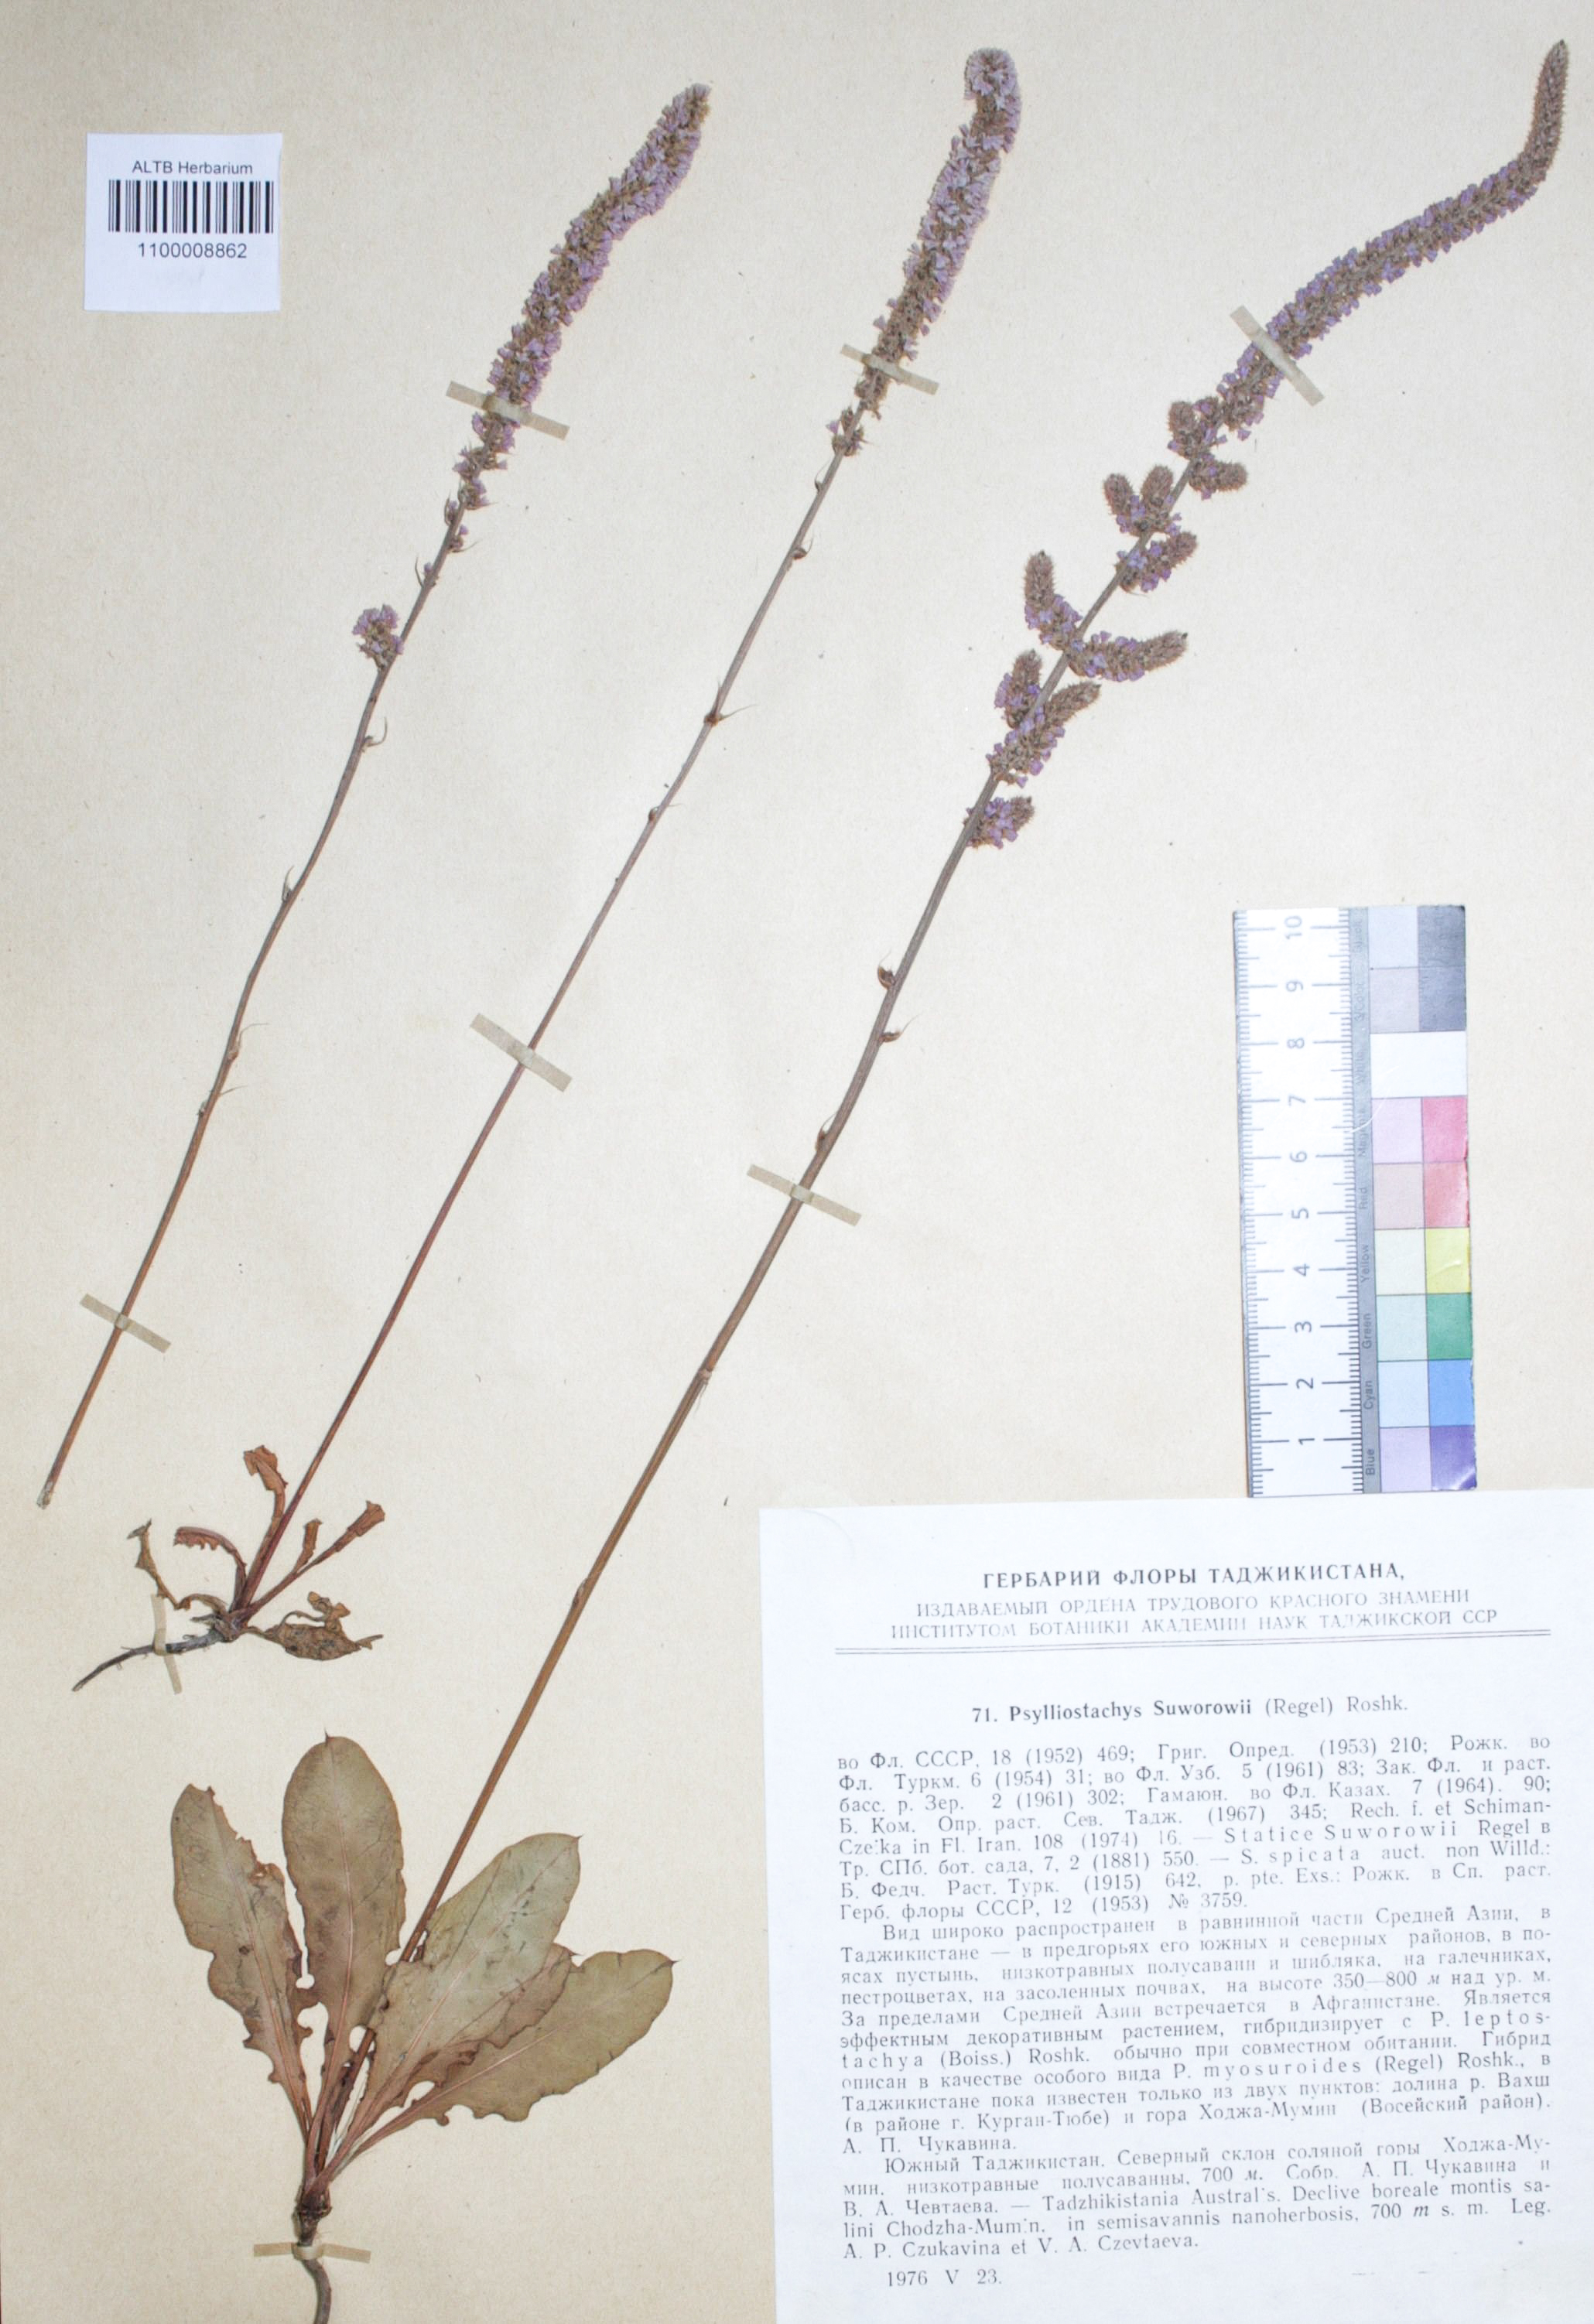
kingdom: Plantae
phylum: Tracheophyta
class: Magnoliopsida
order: Caryophyllales
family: Plumbaginaceae
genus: Psylliostachys
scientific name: Psylliostachys suworowii
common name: Rat-tail statice
